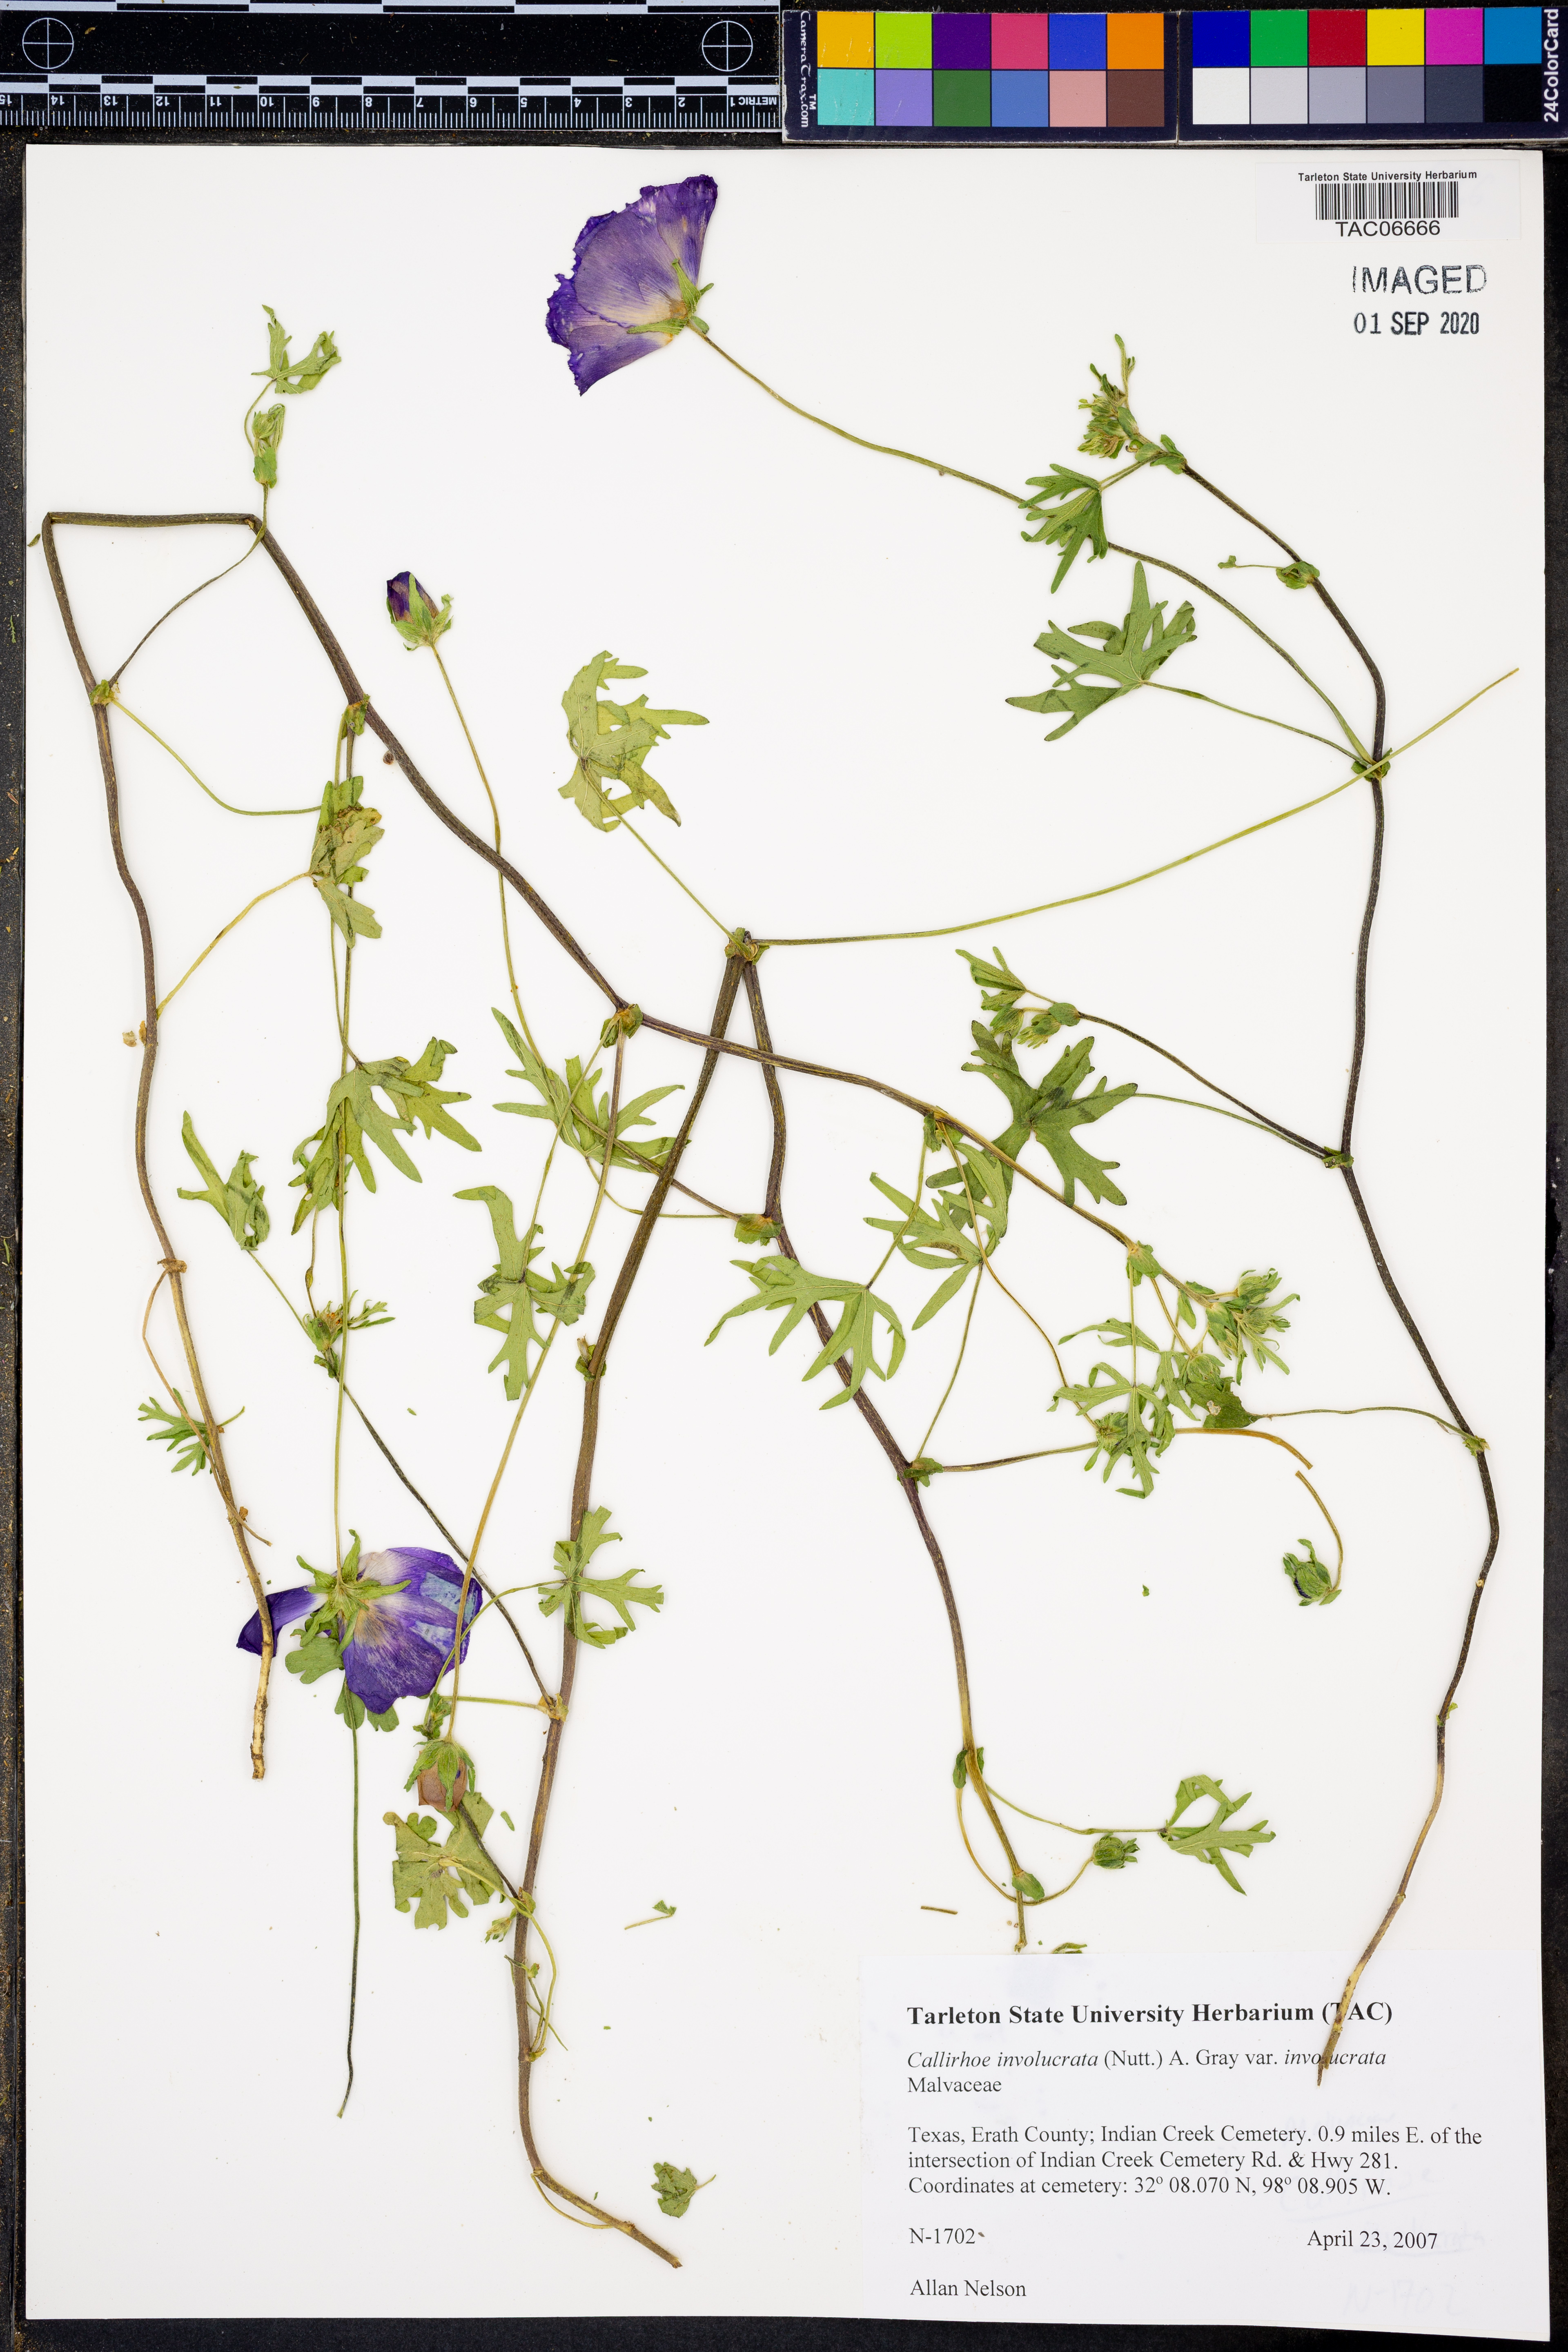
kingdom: Plantae
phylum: Tracheophyta
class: Magnoliopsida
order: Malvales
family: Malvaceae
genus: Callirhoe
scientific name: Callirhoe involucrata
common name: Purple poppy-mallow
